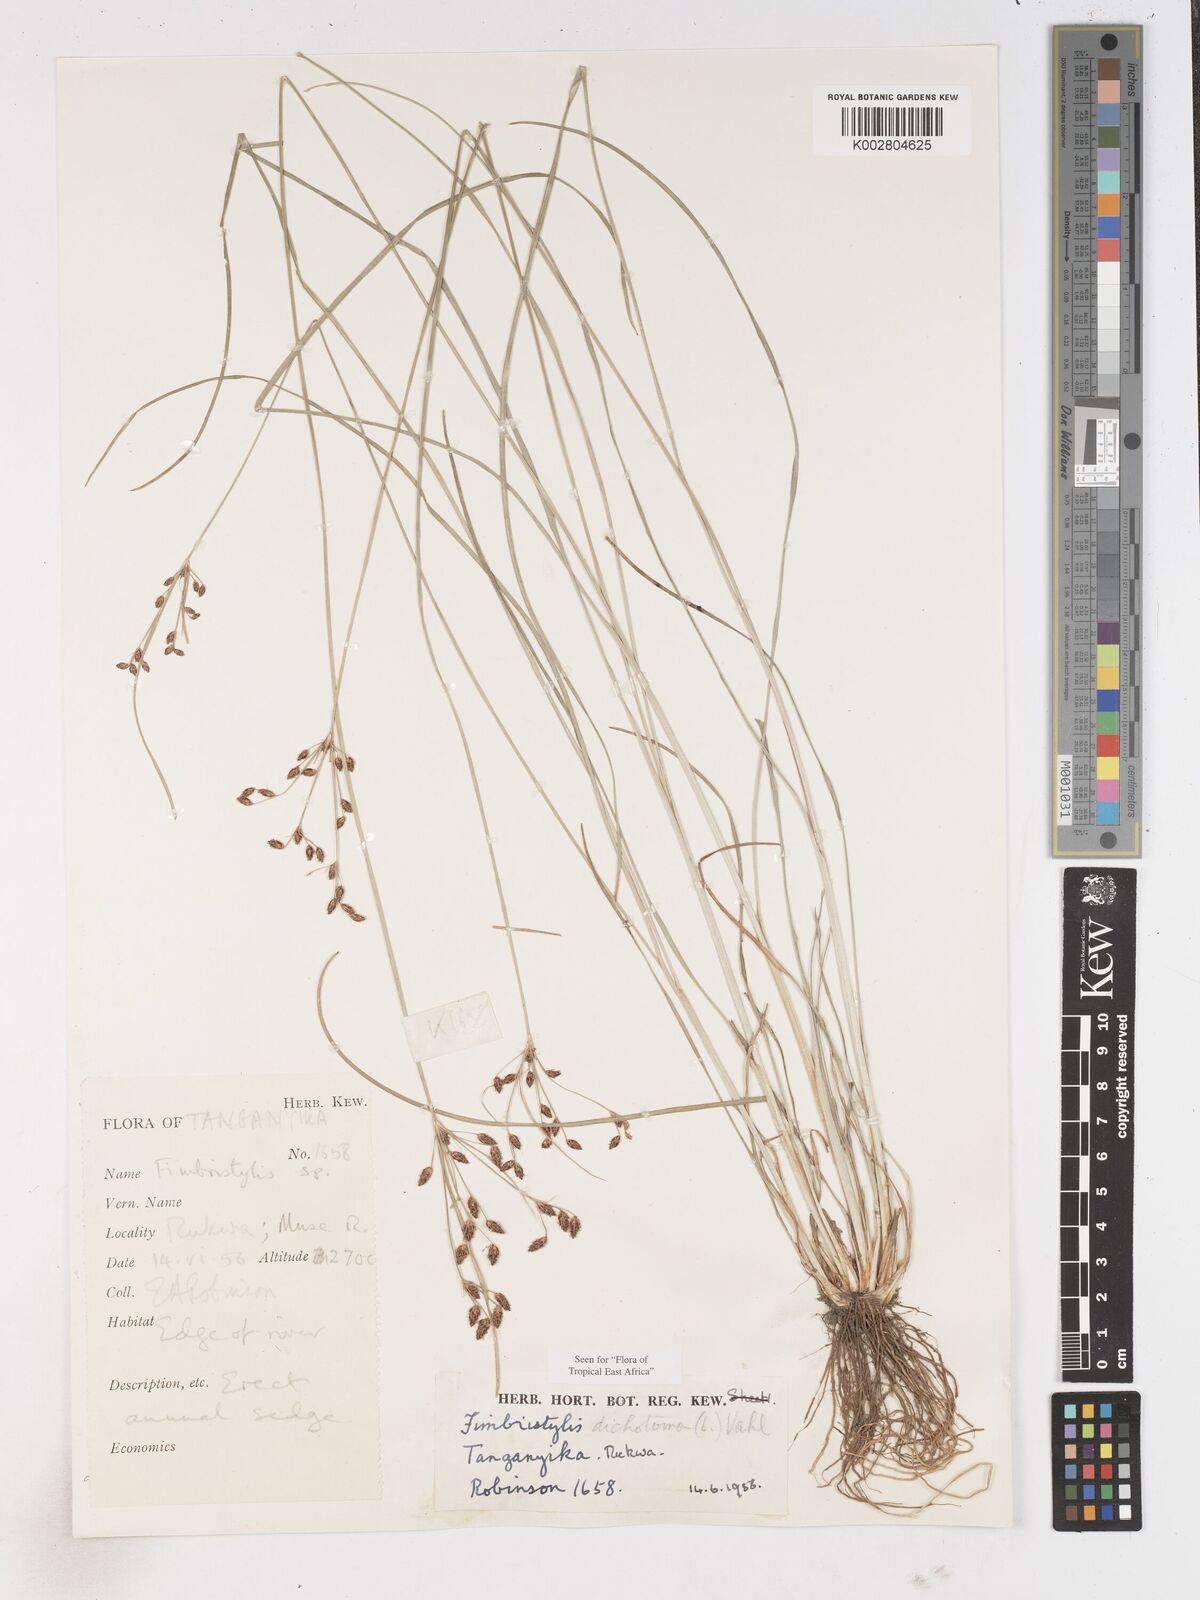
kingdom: Plantae
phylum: Tracheophyta
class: Liliopsida
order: Poales
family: Cyperaceae
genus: Fimbristylis
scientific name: Fimbristylis dichotoma
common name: Forked fimbry
